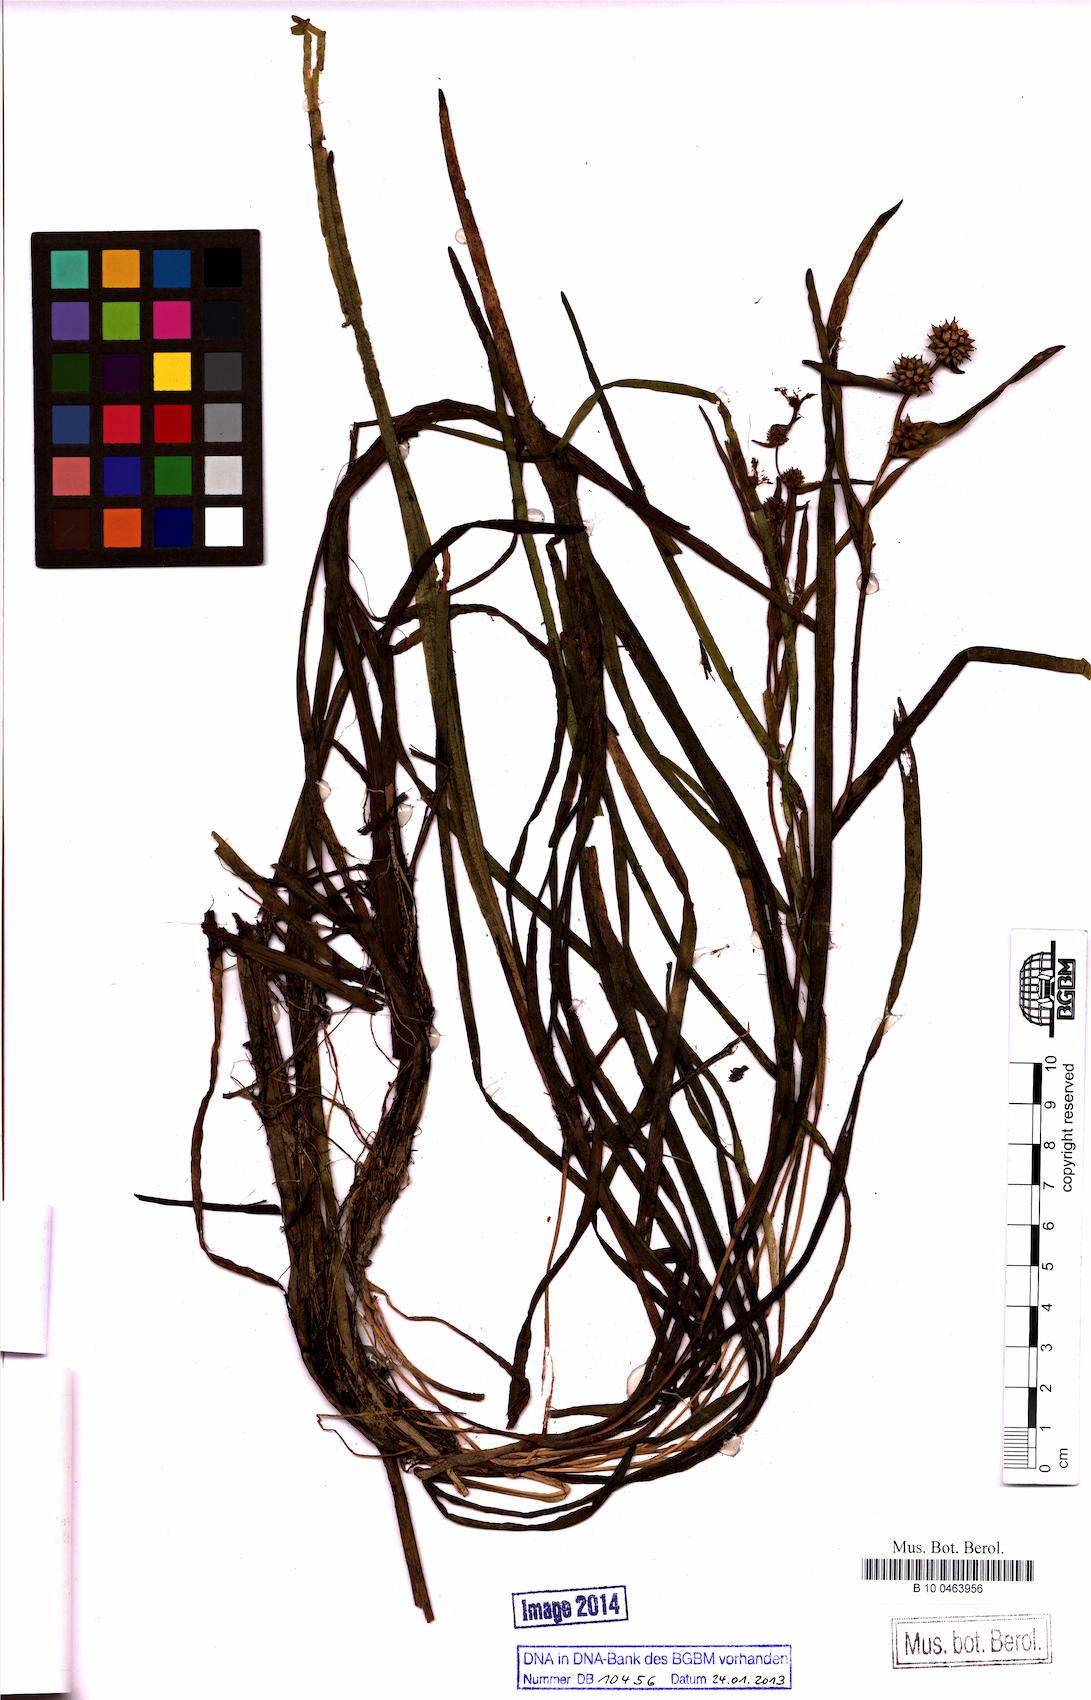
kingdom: Plantae
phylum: Tracheophyta
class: Liliopsida
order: Poales
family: Typhaceae
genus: Sparganium
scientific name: Sparganium natans
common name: Least bur-reed
